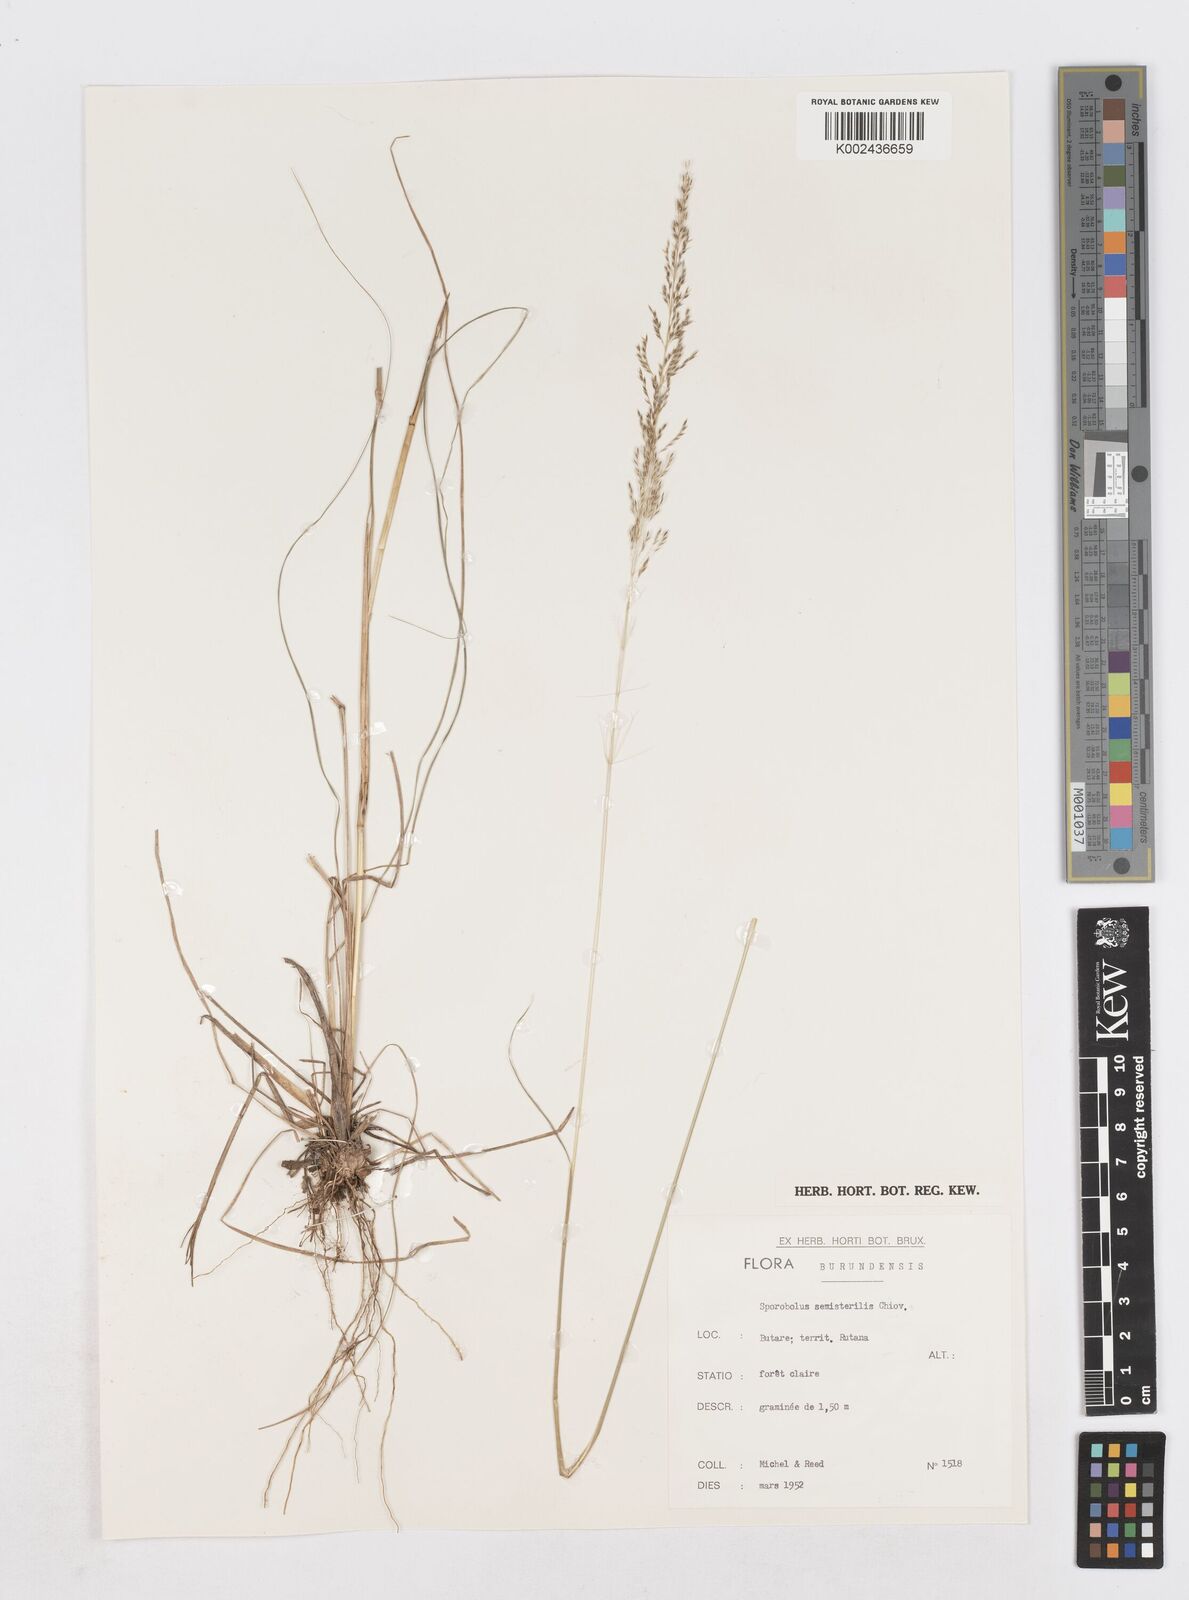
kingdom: Plantae
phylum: Tracheophyta
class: Liliopsida
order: Poales
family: Poaceae
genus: Sporobolus
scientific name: Sporobolus sanguineus
